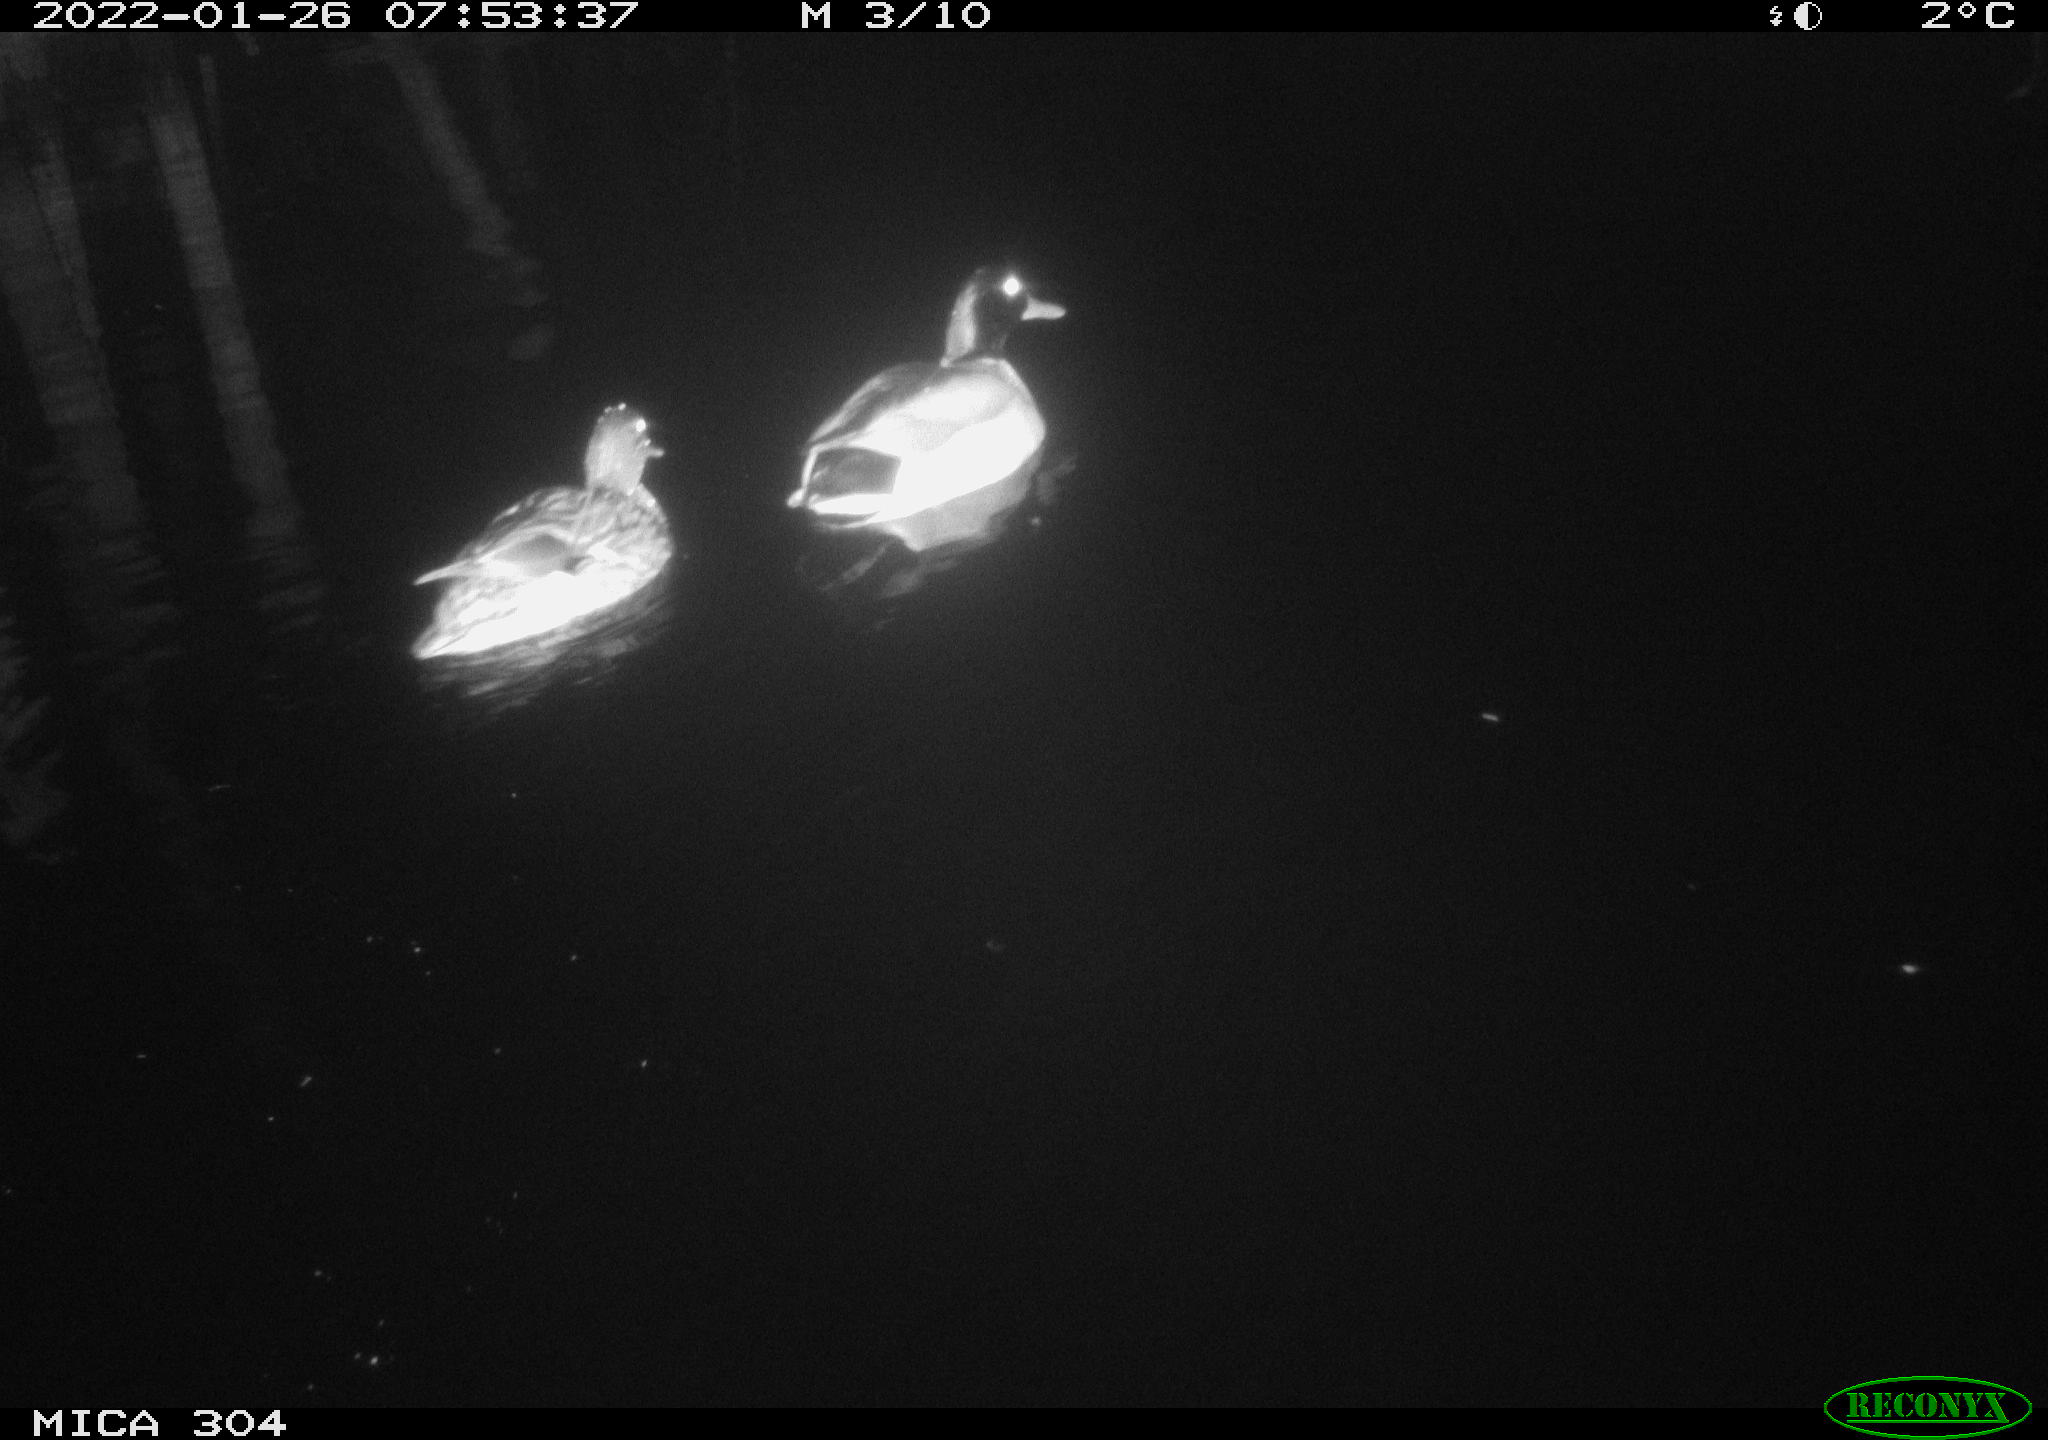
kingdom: Animalia
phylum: Chordata
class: Aves
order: Anseriformes
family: Anatidae
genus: Anas
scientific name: Anas
